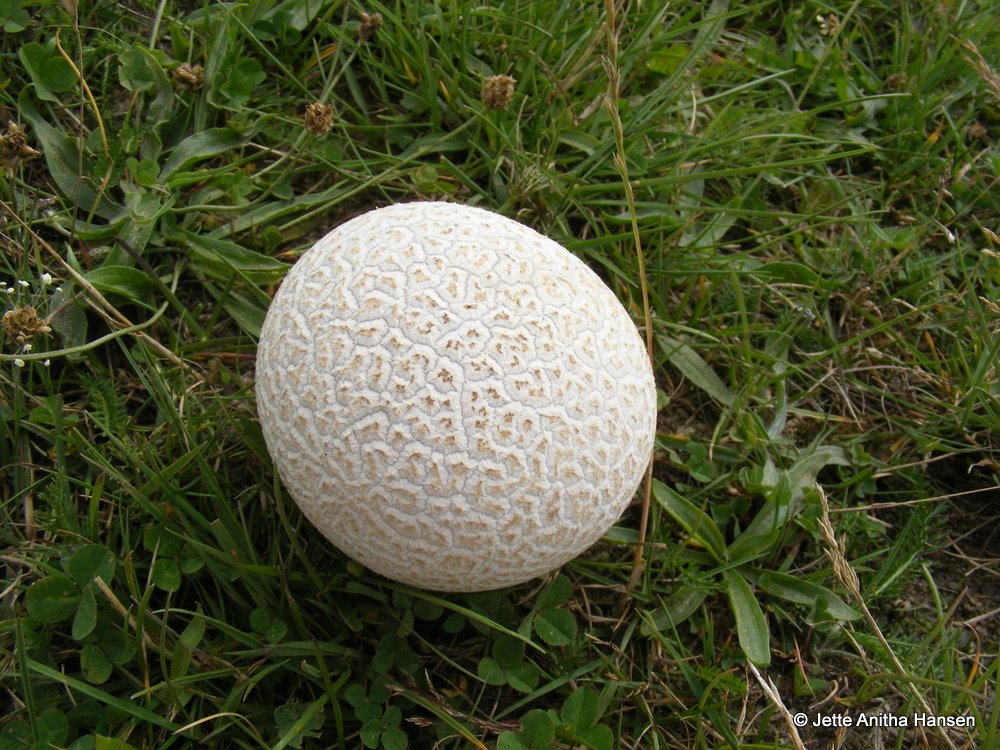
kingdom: Fungi
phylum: Basidiomycota
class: Agaricomycetes
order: Agaricales
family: Lycoperdaceae
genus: Bovistella
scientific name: Bovistella utriformis
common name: skællet støvbold
